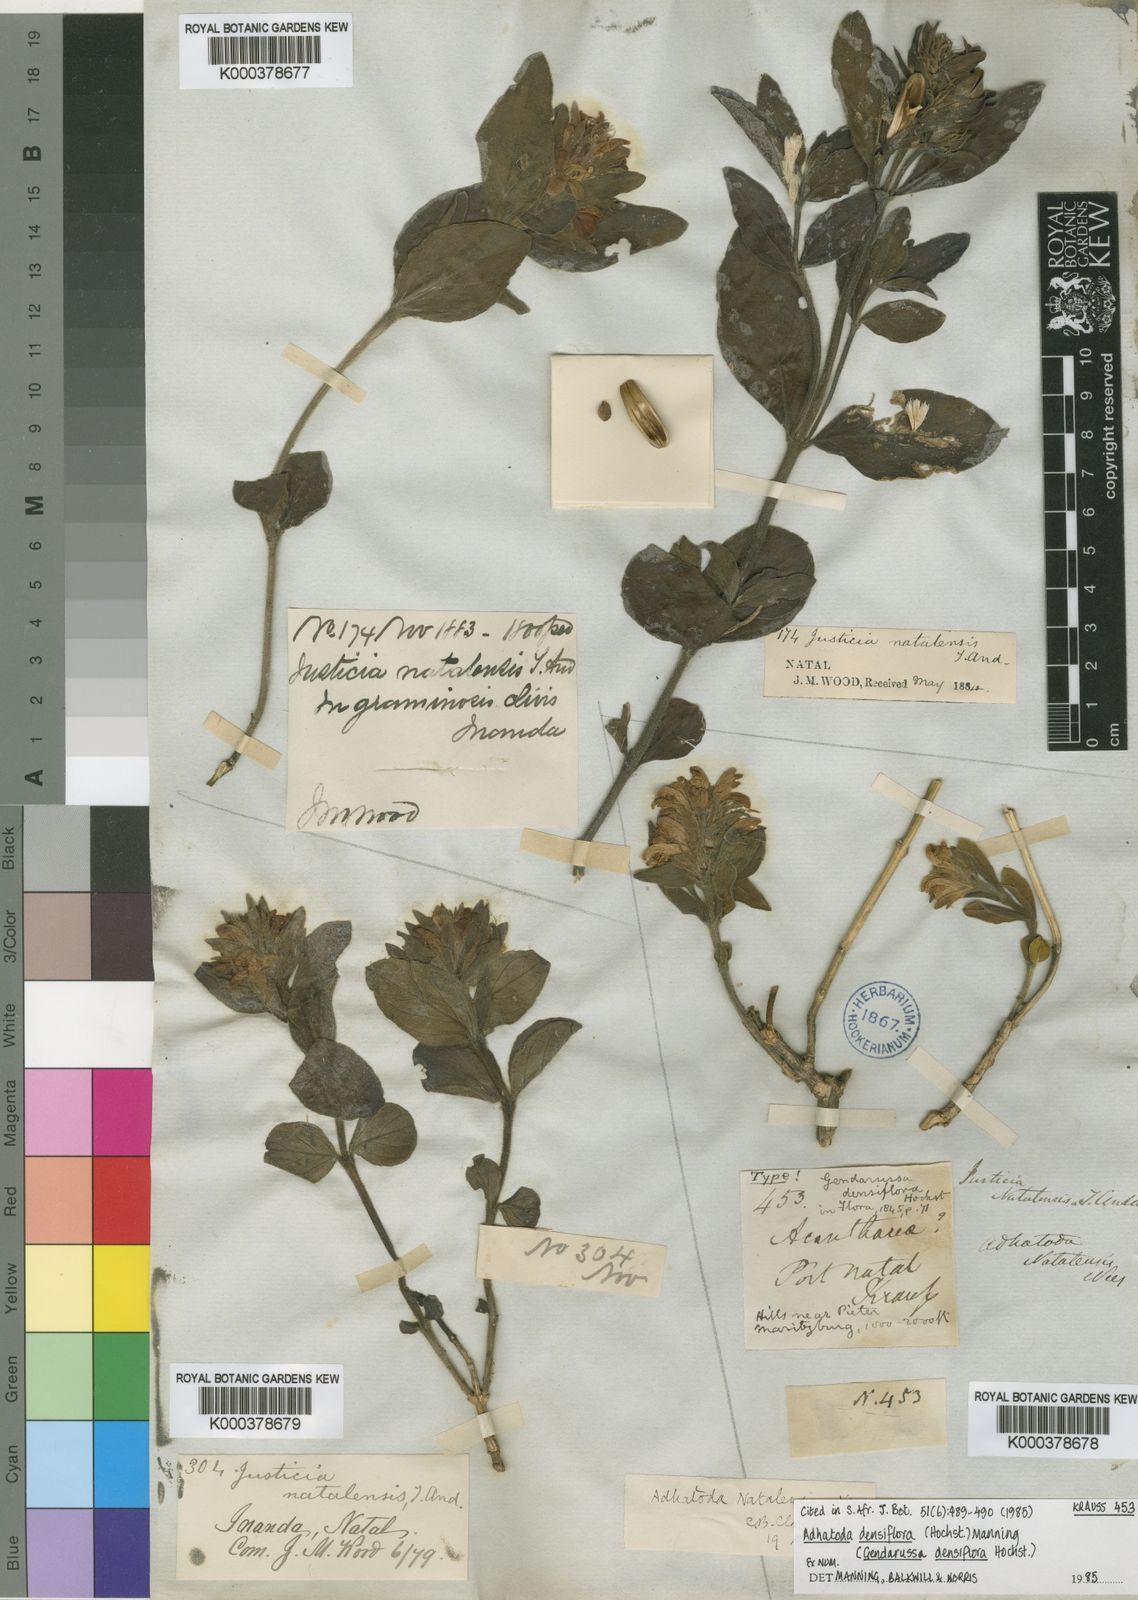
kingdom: Plantae
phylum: Tracheophyta
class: Magnoliopsida
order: Lamiales
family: Acanthaceae
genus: Justicia
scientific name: Justicia densiflora
